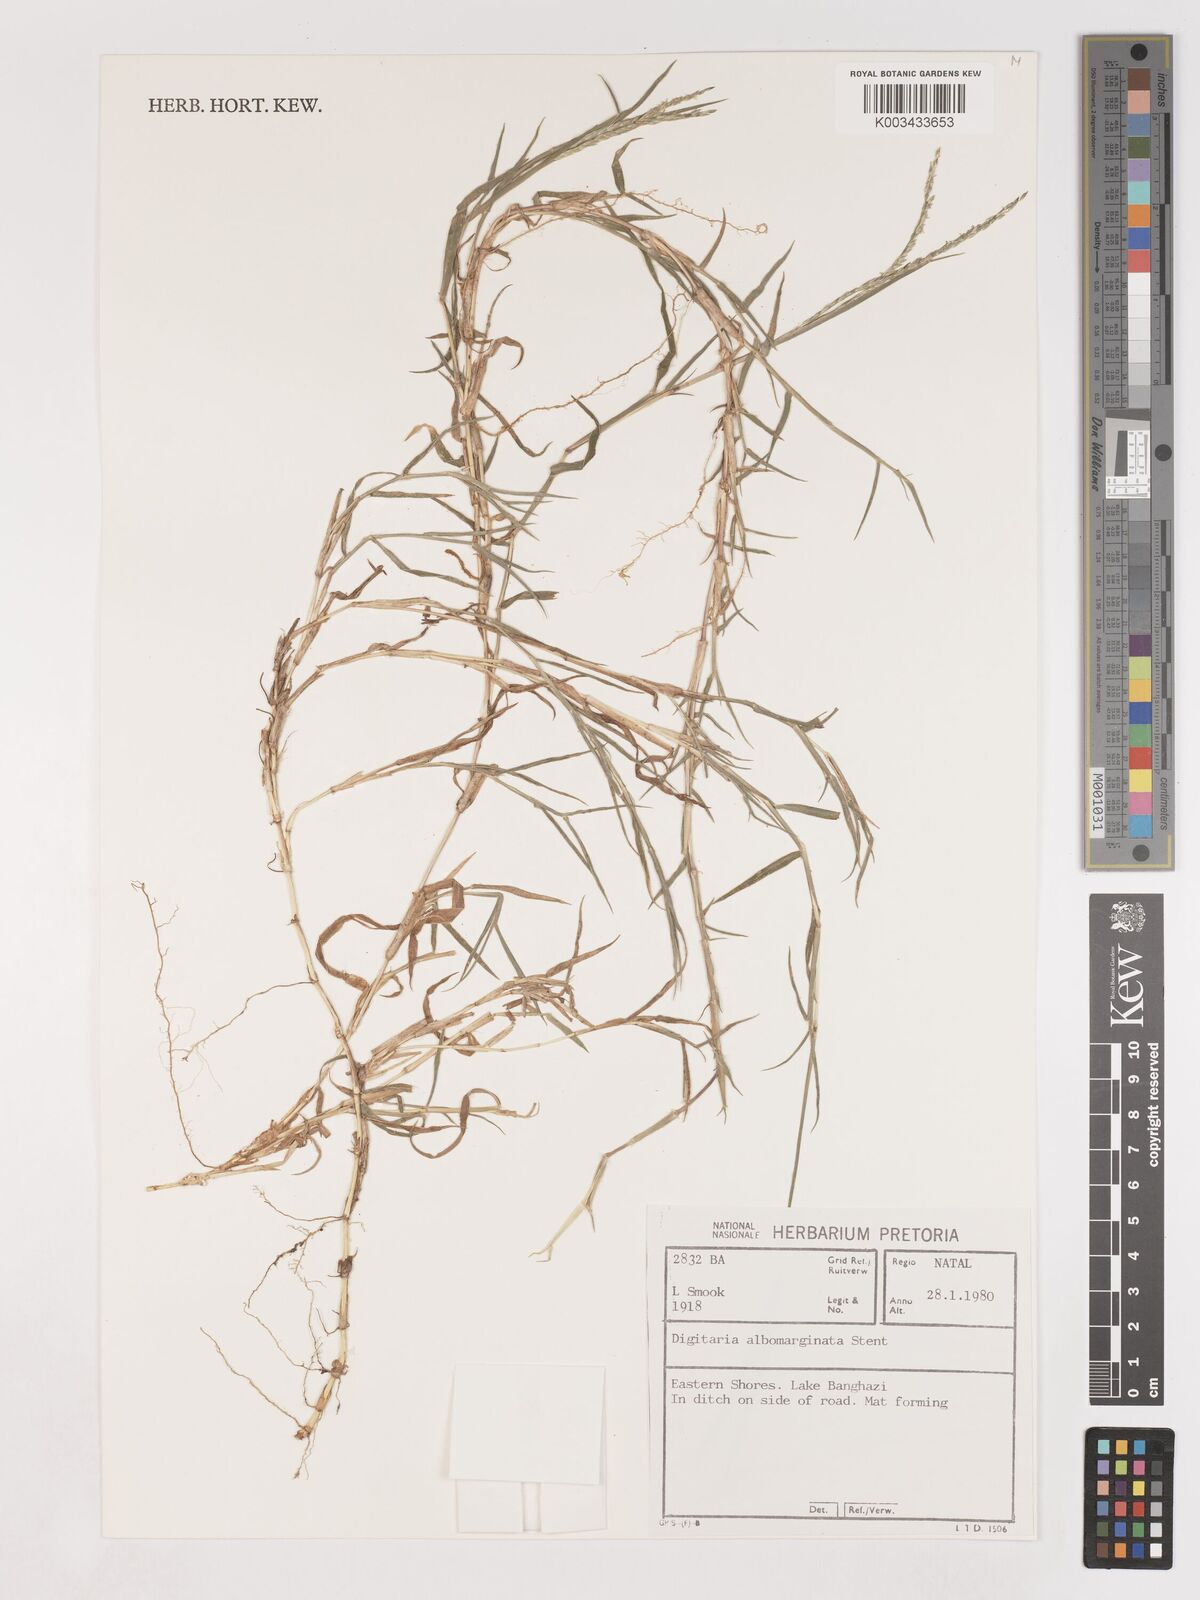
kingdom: Plantae
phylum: Tracheophyta
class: Liliopsida
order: Poales
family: Poaceae
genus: Digitaria
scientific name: Digitaria diversinervis
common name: Richmond finger grass
